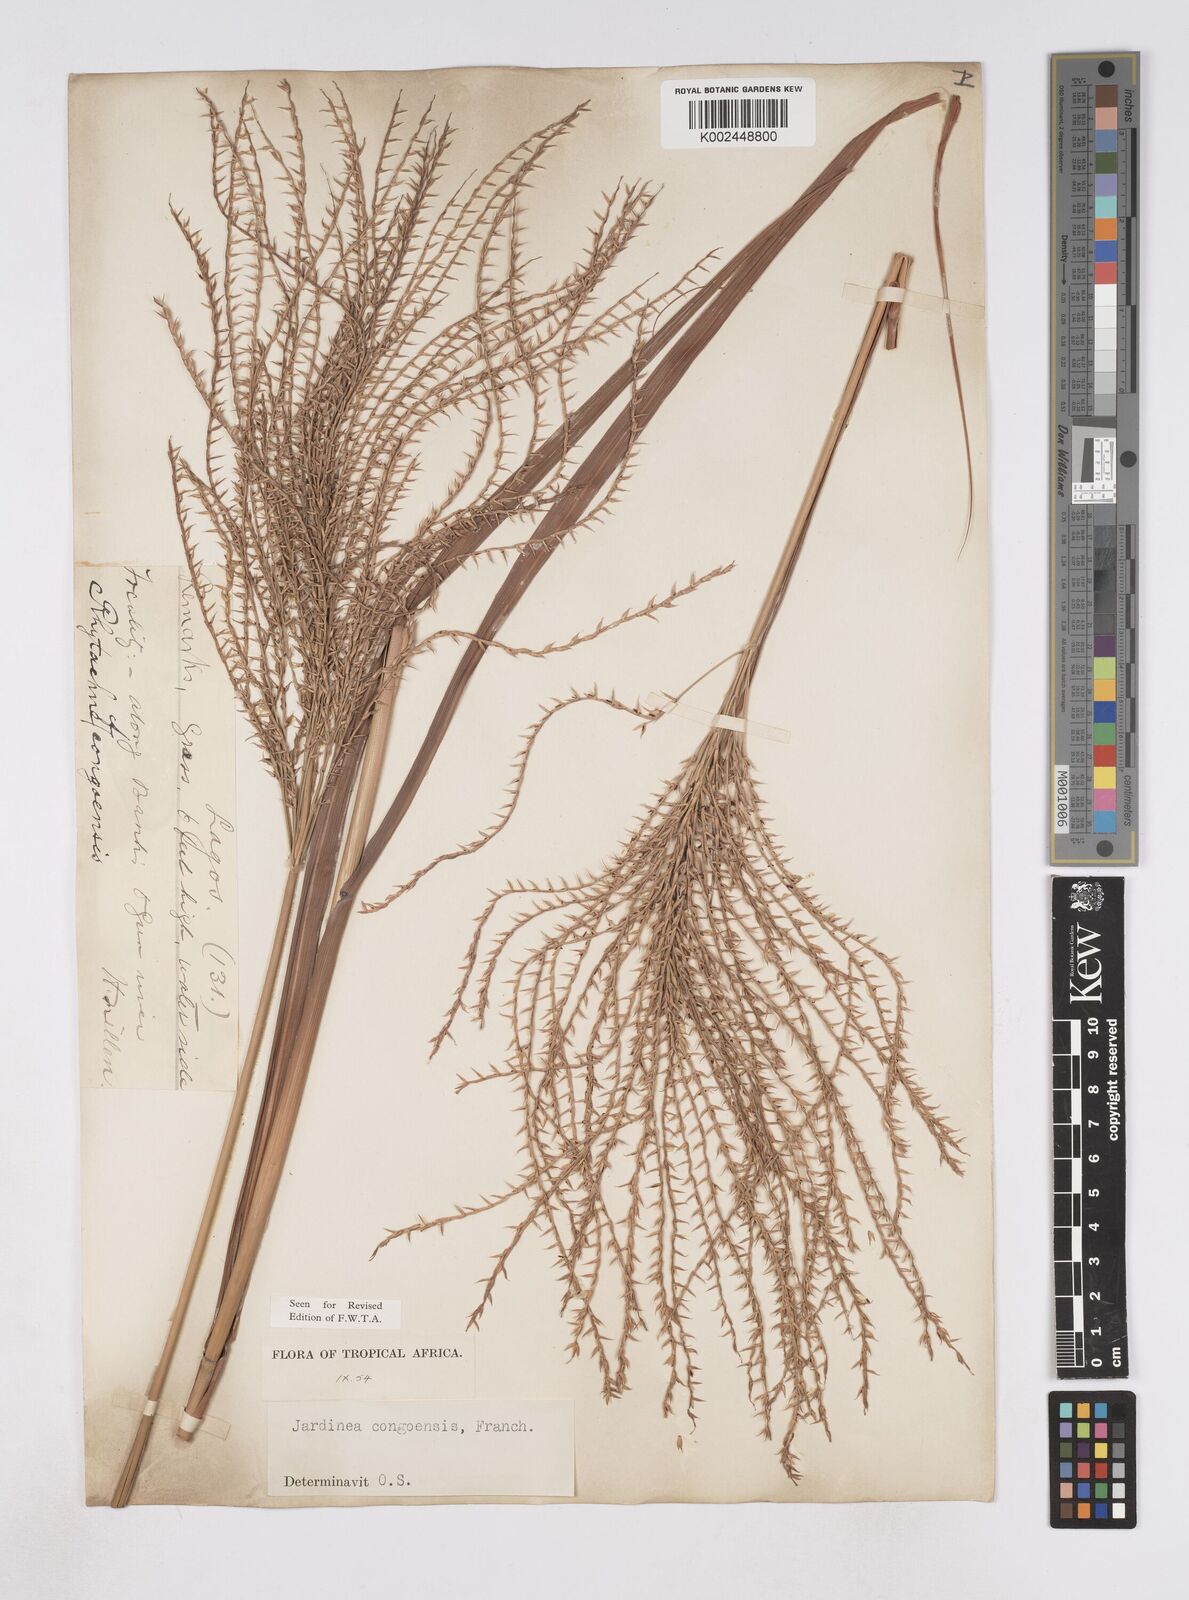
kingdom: Plantae
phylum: Tracheophyta
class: Liliopsida
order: Poales
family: Poaceae
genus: Phacelurus
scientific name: Phacelurus gabonensis
